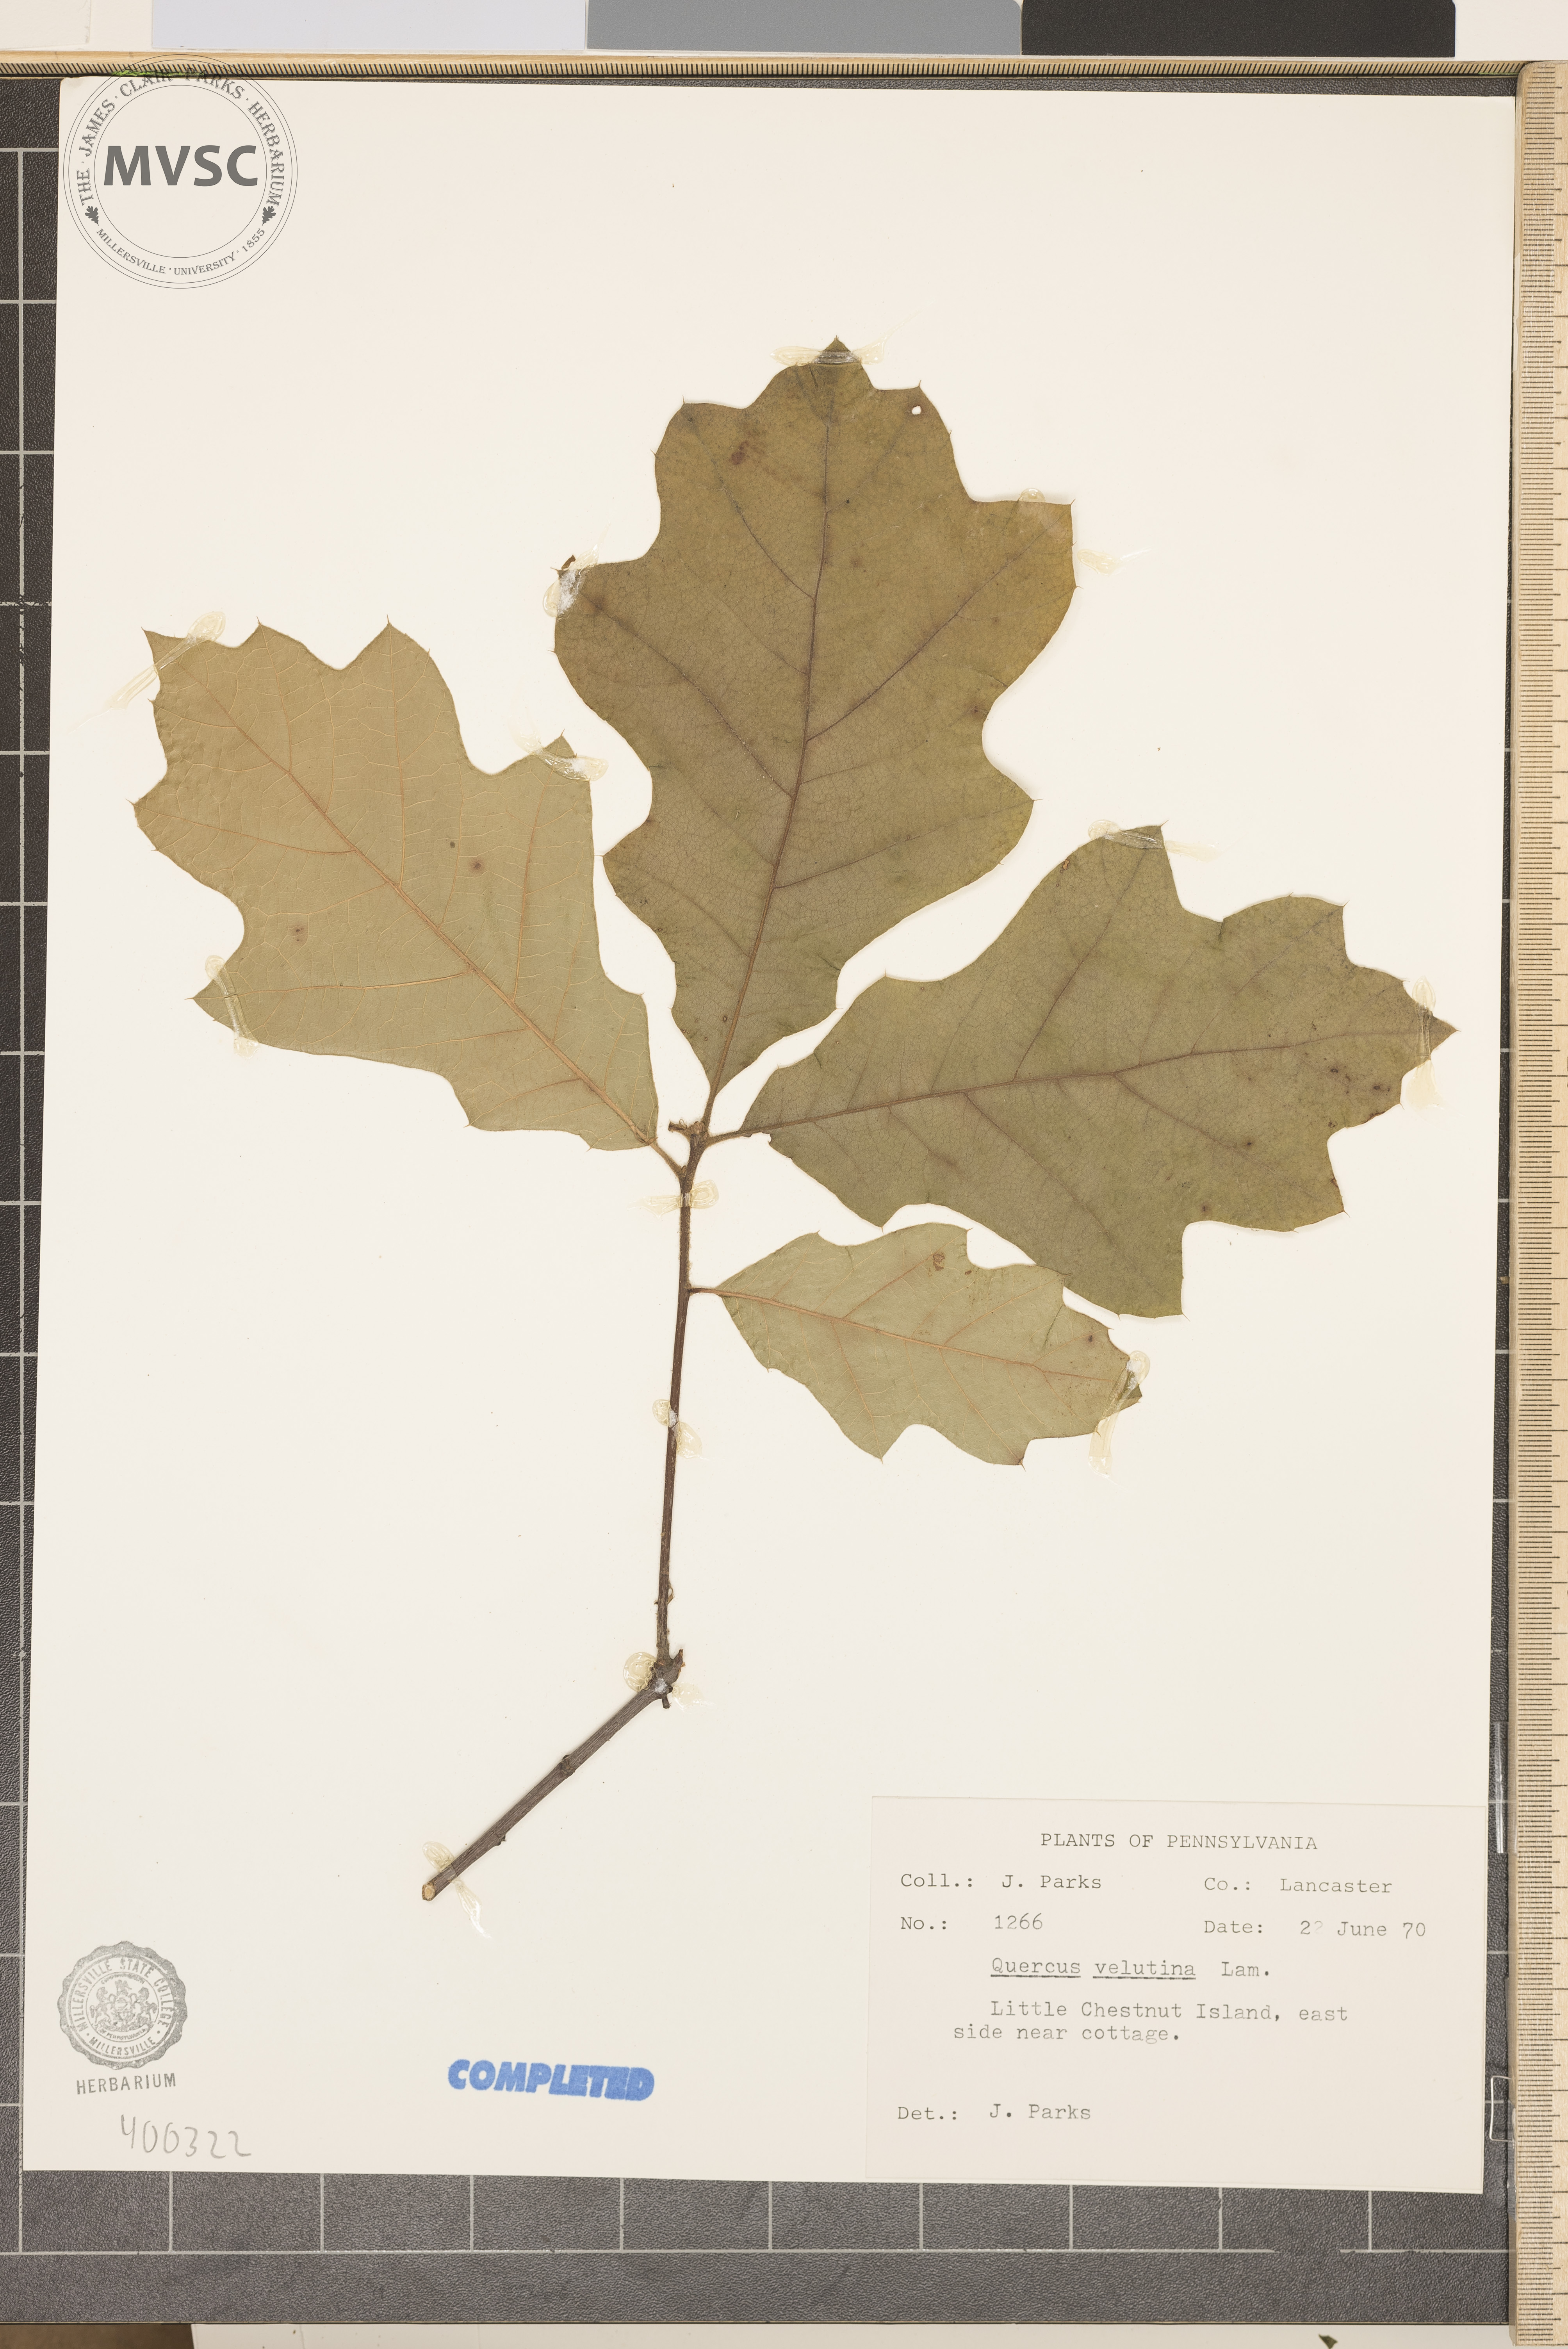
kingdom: Plantae
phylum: Tracheophyta
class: Magnoliopsida
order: Fagales
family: Fagaceae
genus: Quercus
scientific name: Quercus velutina
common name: black oak
